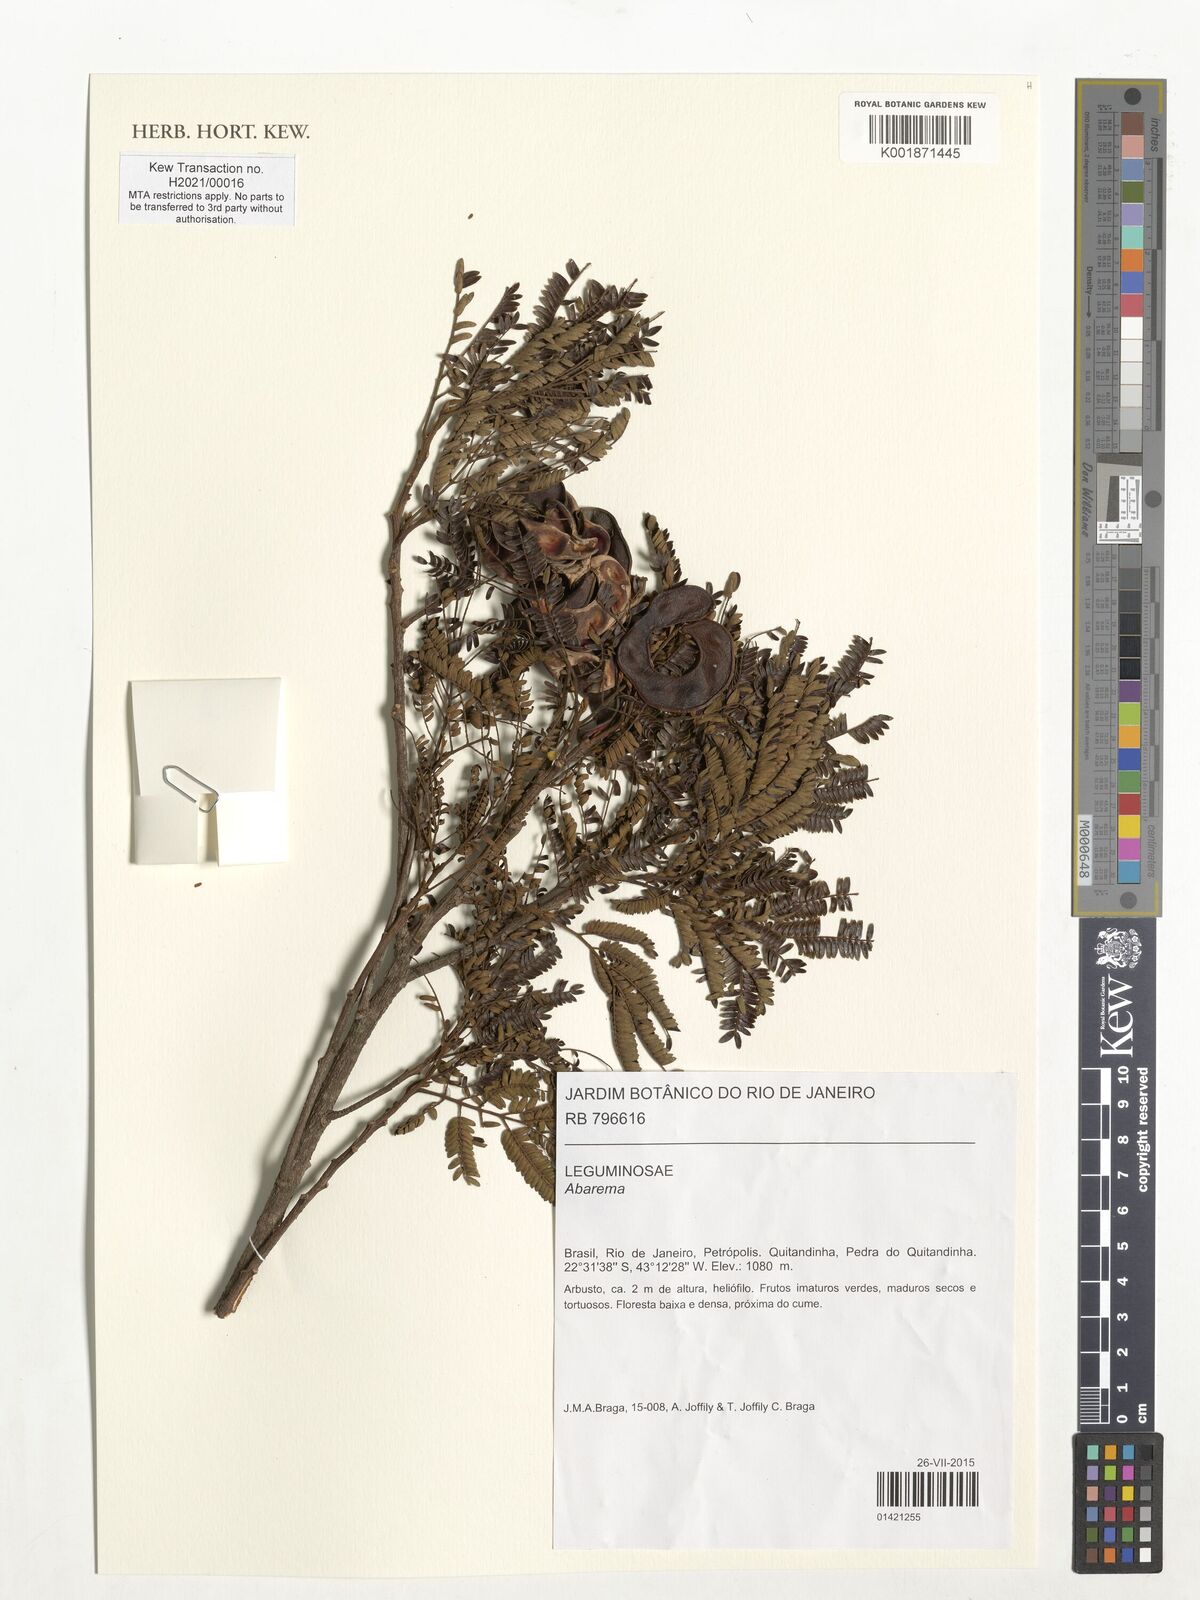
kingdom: Plantae
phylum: Tracheophyta
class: Magnoliopsida
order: Fabales
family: Fabaceae
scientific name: Fabaceae
